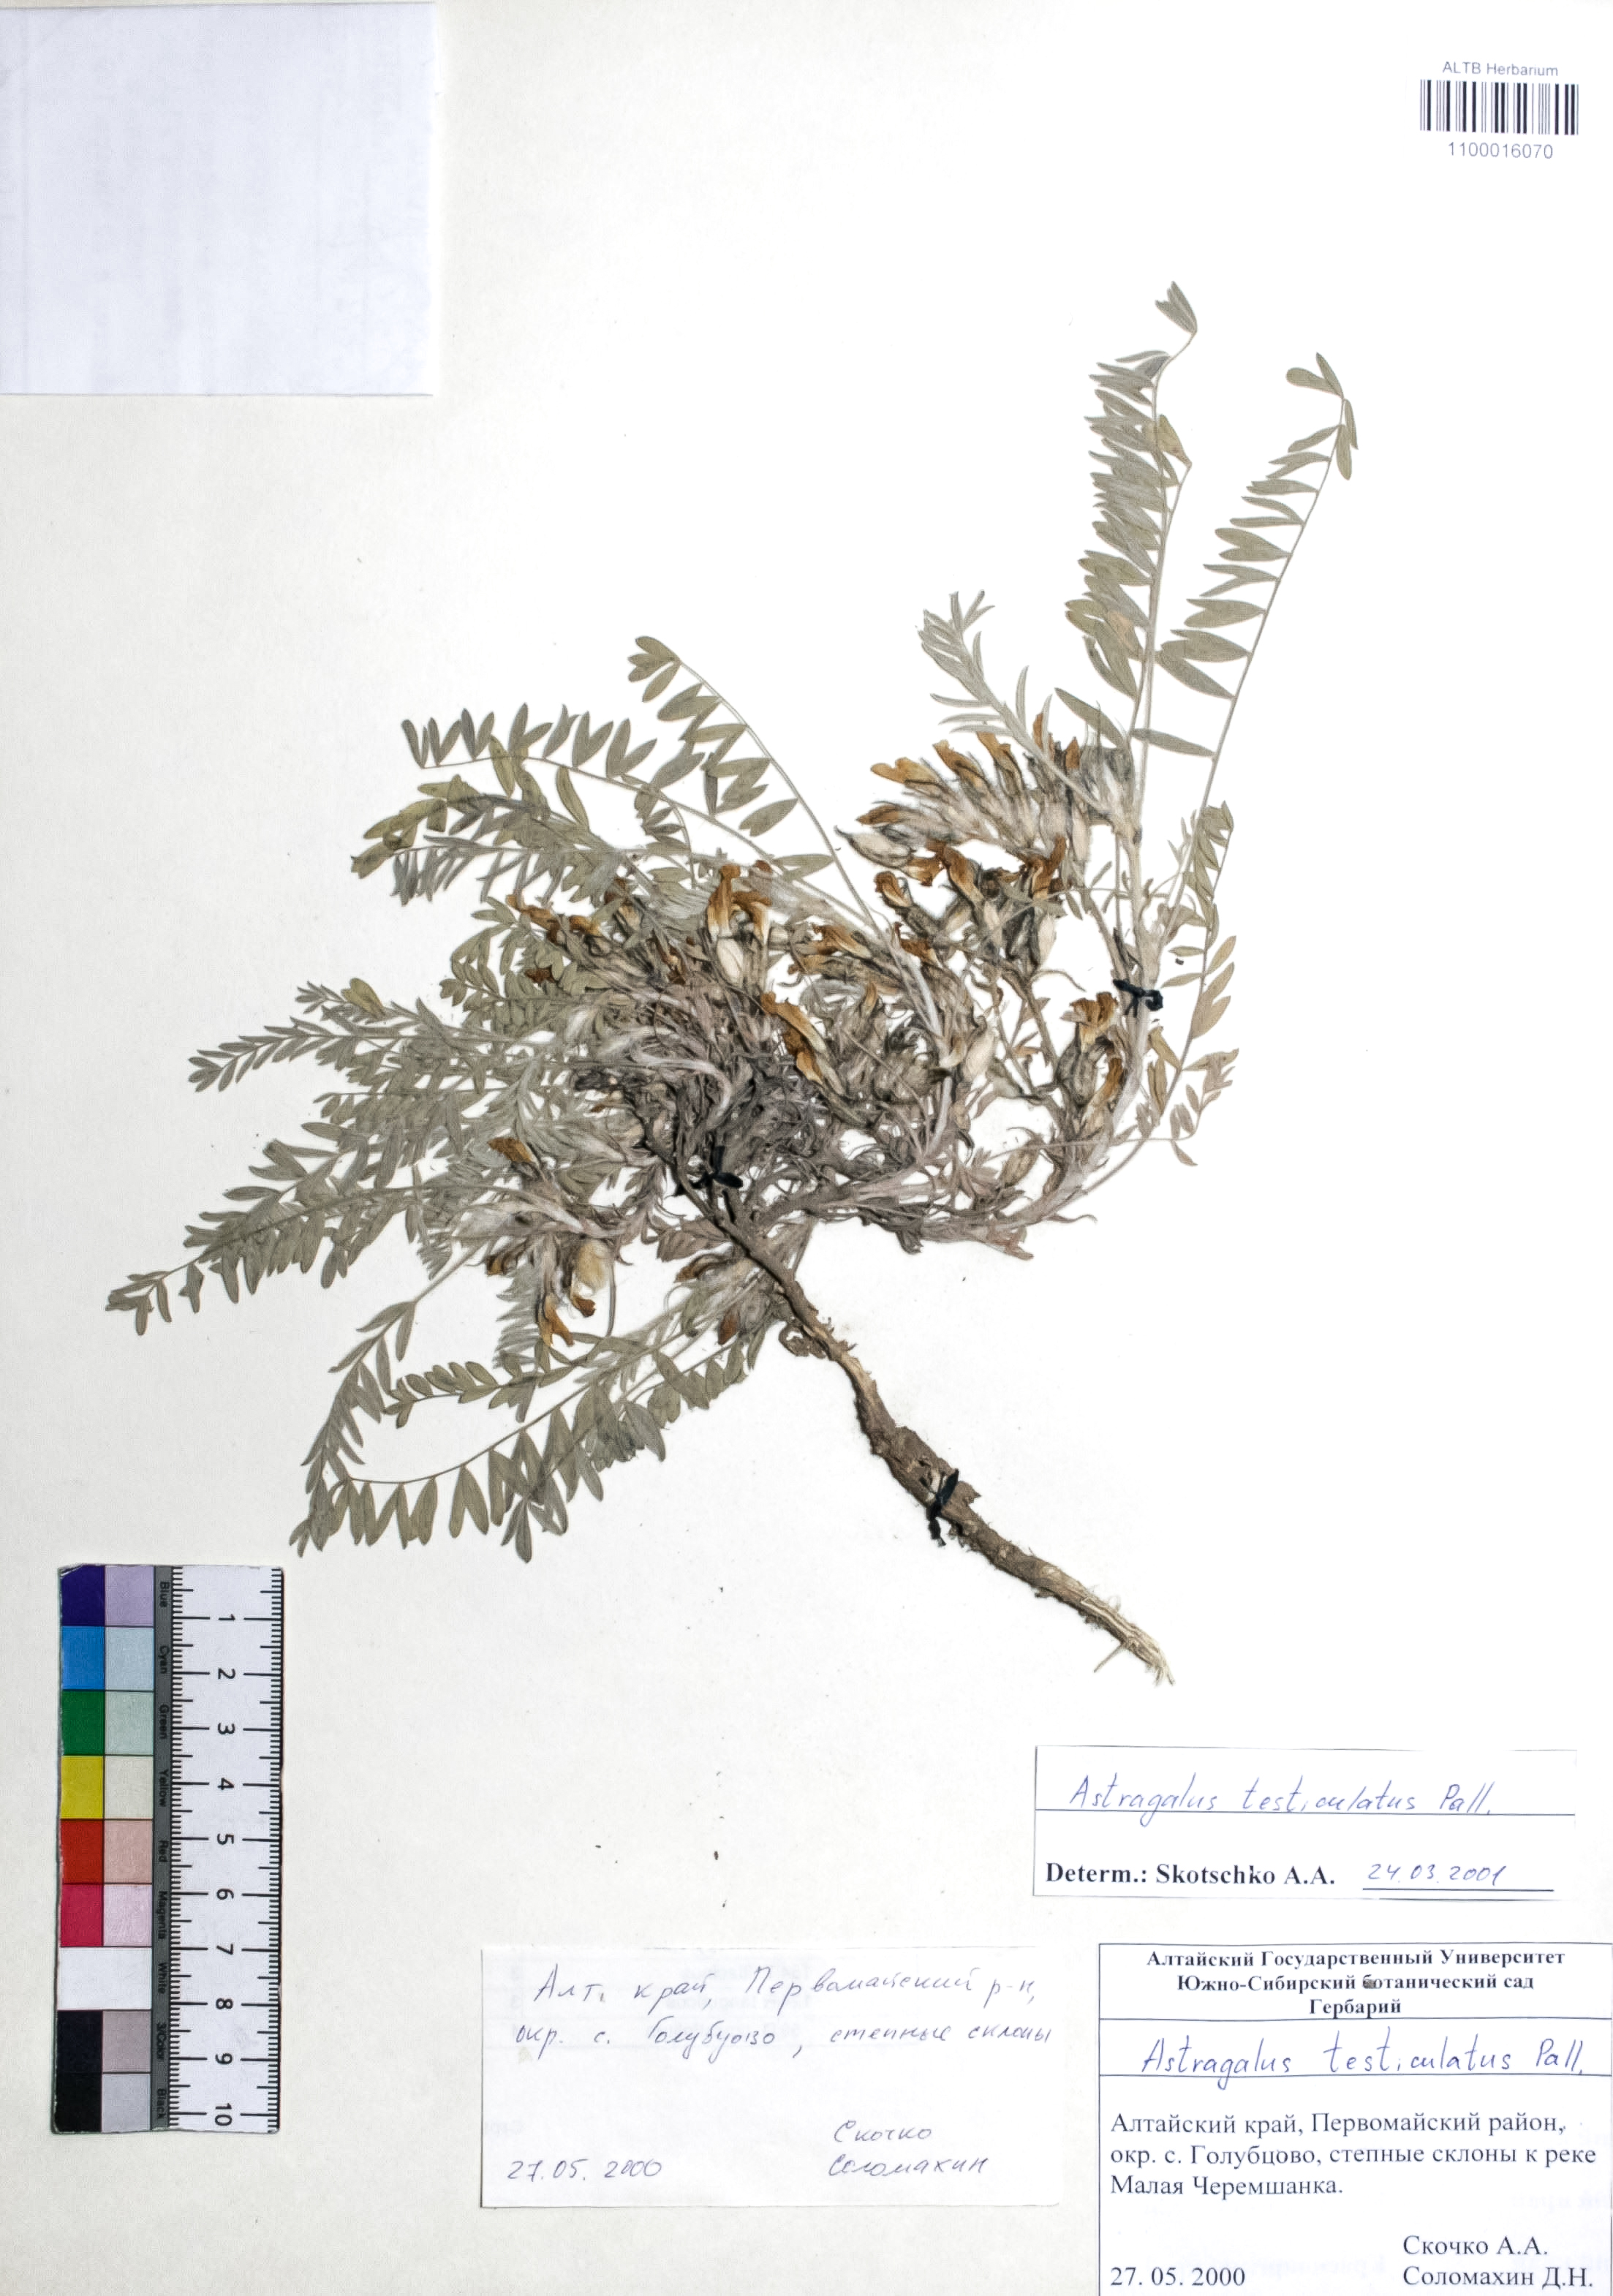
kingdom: Plantae
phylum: Tracheophyta
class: Magnoliopsida
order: Fabales
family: Fabaceae
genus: Astragalus
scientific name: Astragalus testiculatus
